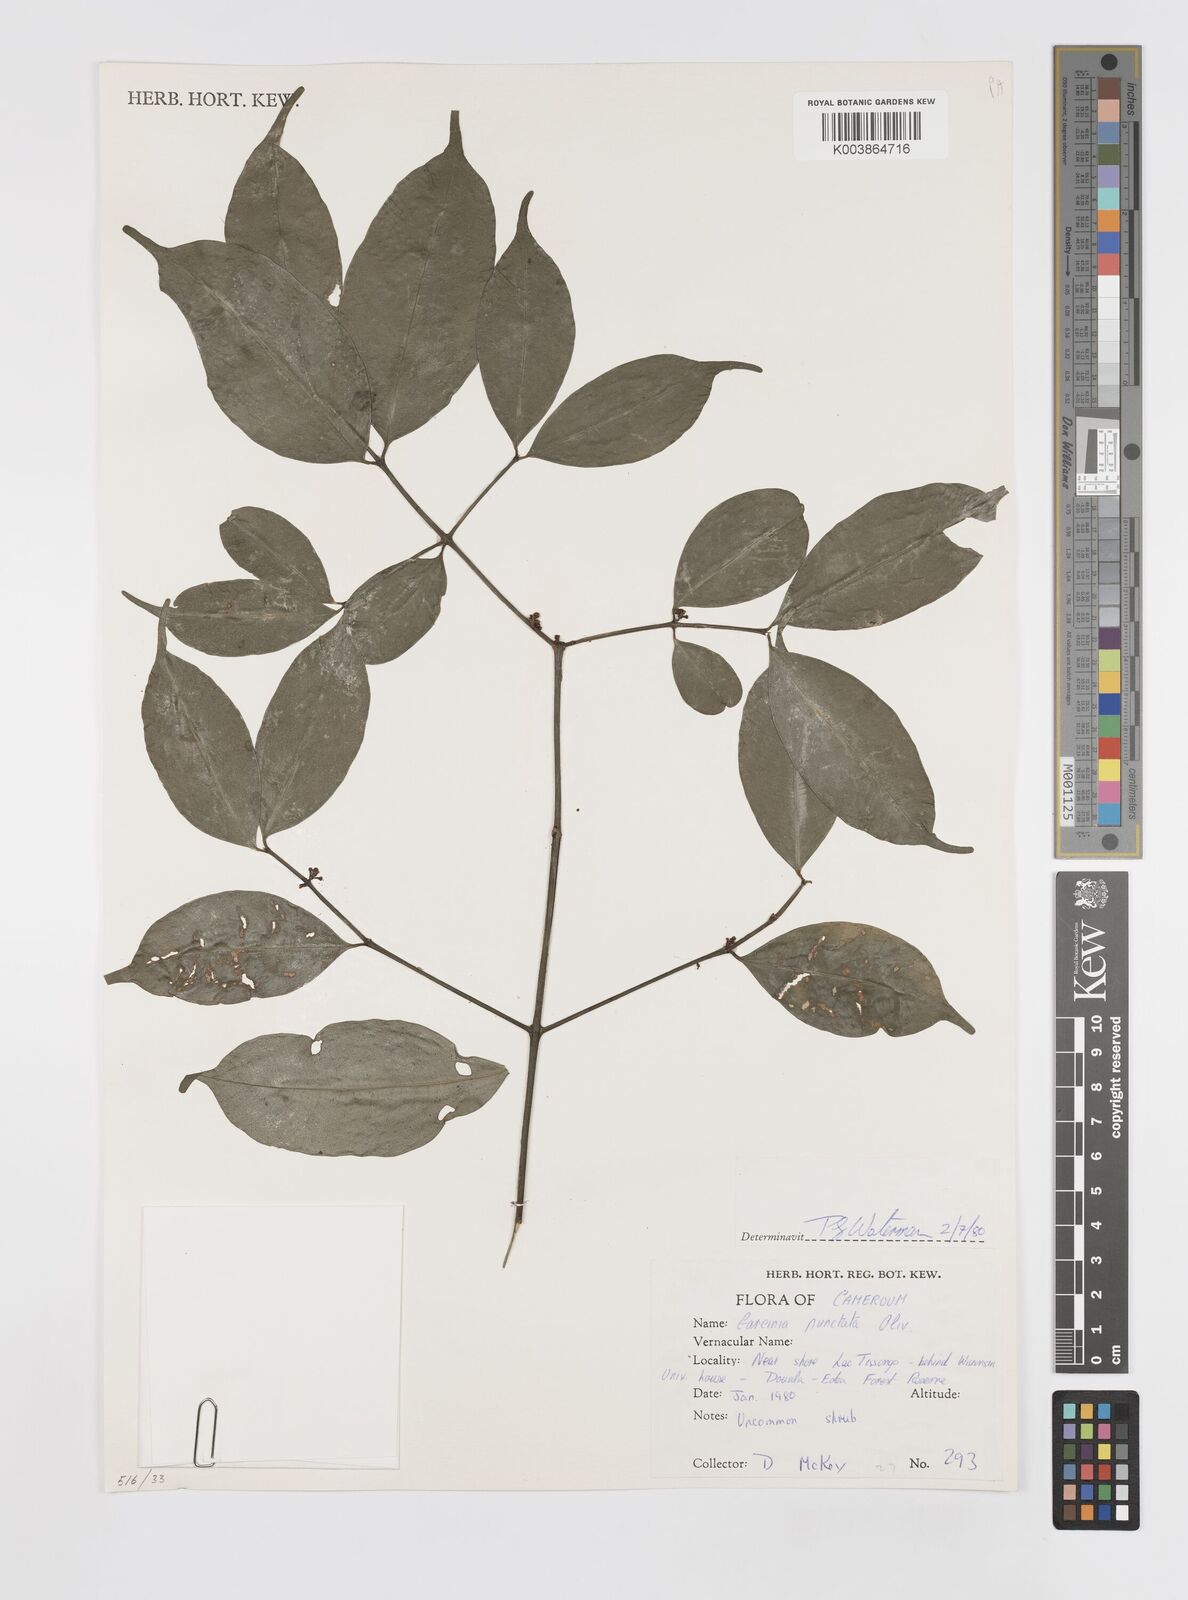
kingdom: Plantae
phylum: Tracheophyta
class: Magnoliopsida
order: Malpighiales
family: Clusiaceae
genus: Garcinia
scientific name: Garcinia punctata
